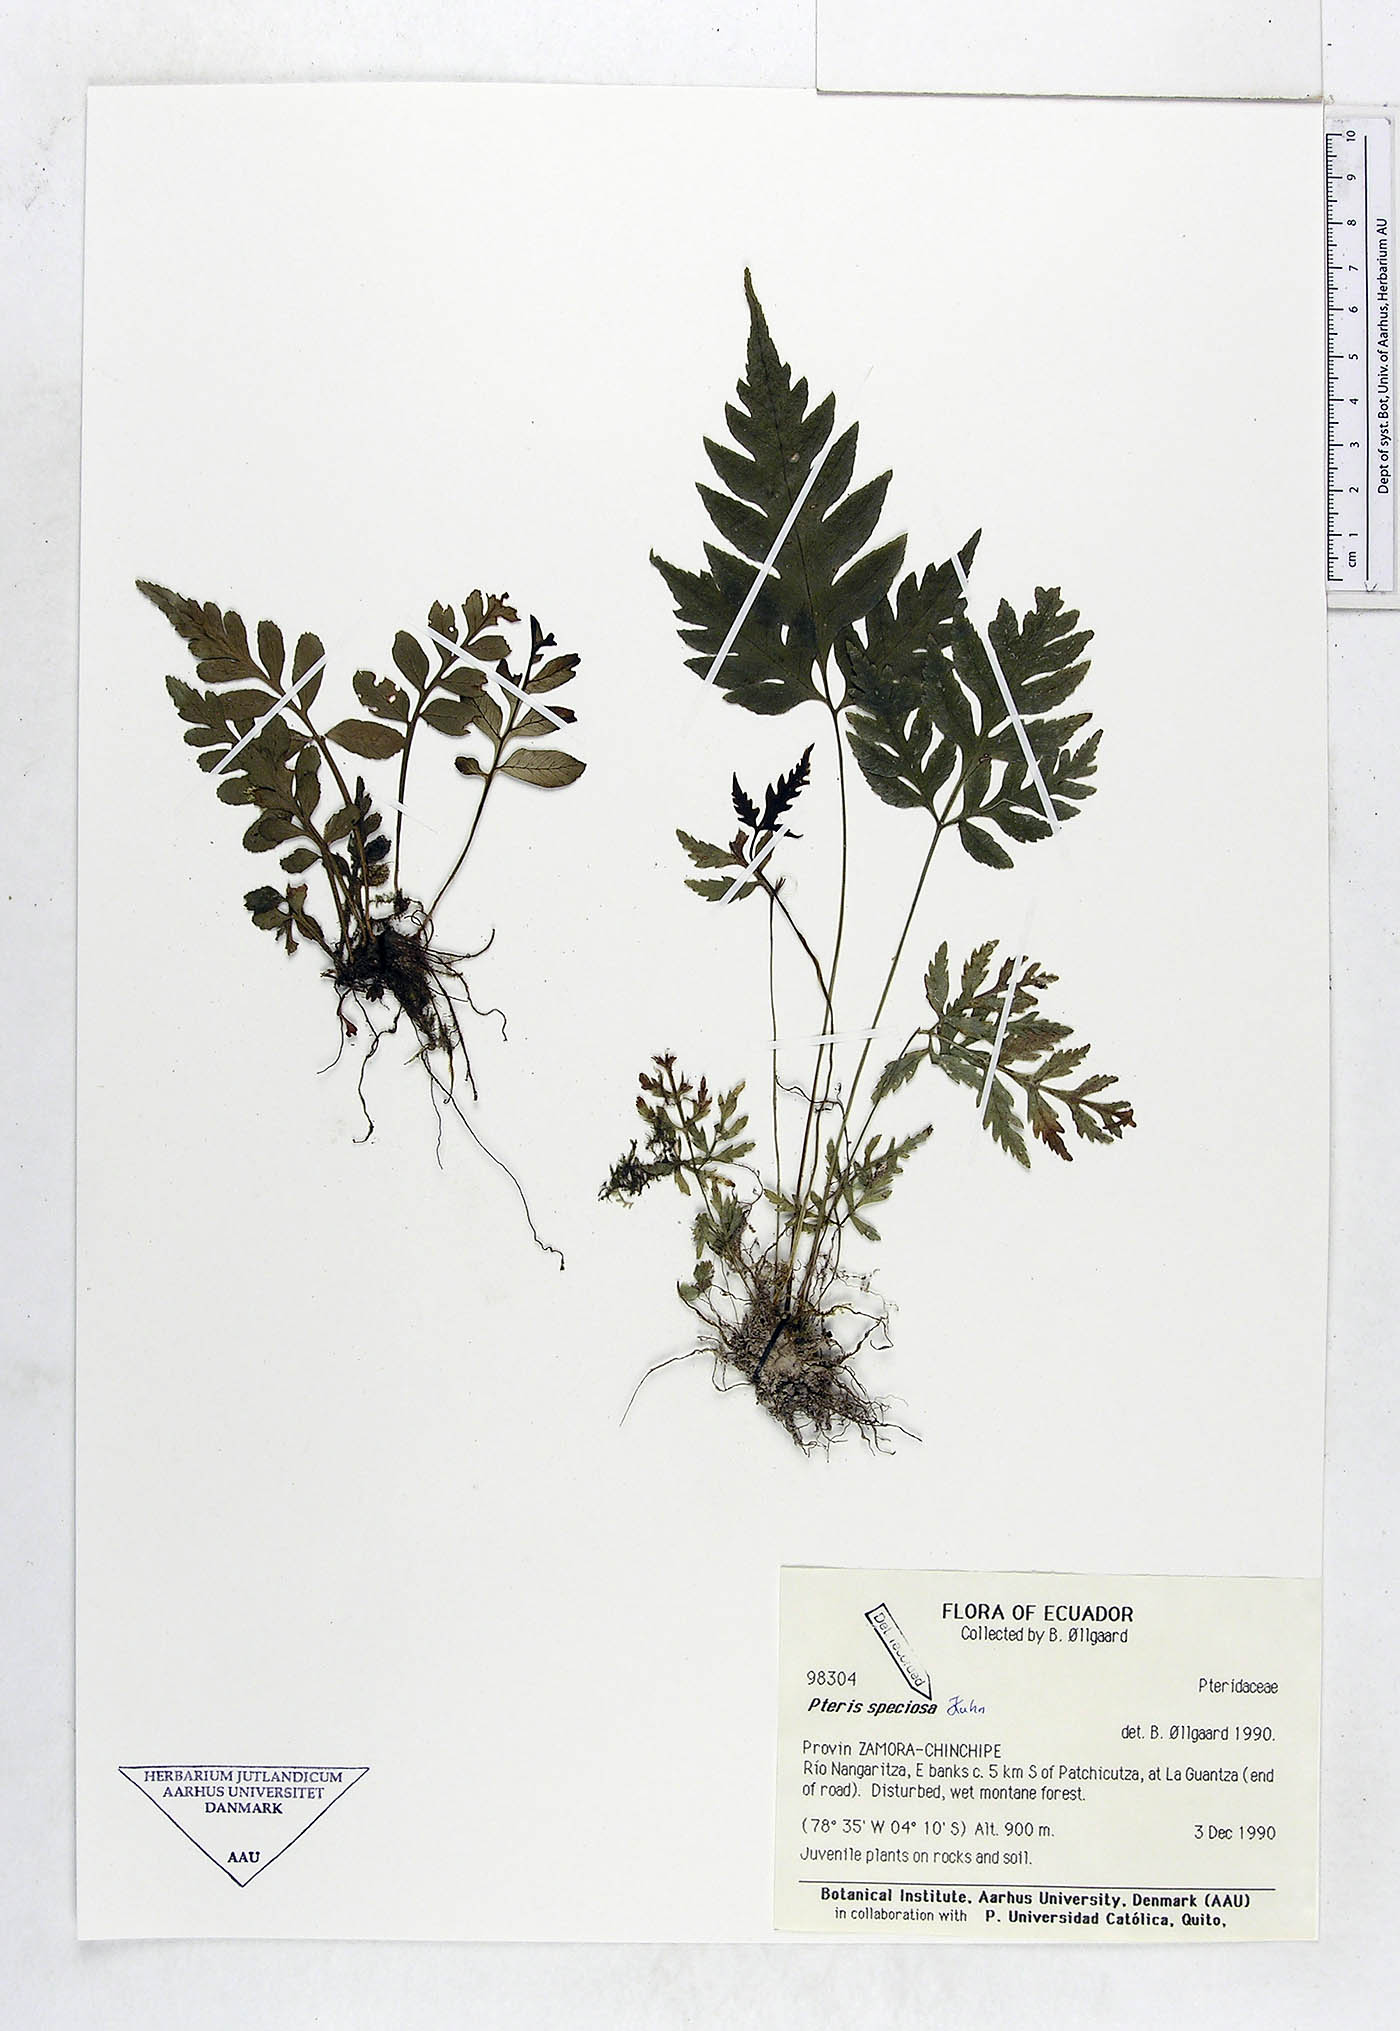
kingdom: Plantae
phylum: Tracheophyta
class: Polypodiopsida
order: Polypodiales
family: Pteridaceae
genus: Pteris
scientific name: Pteris speciosa
